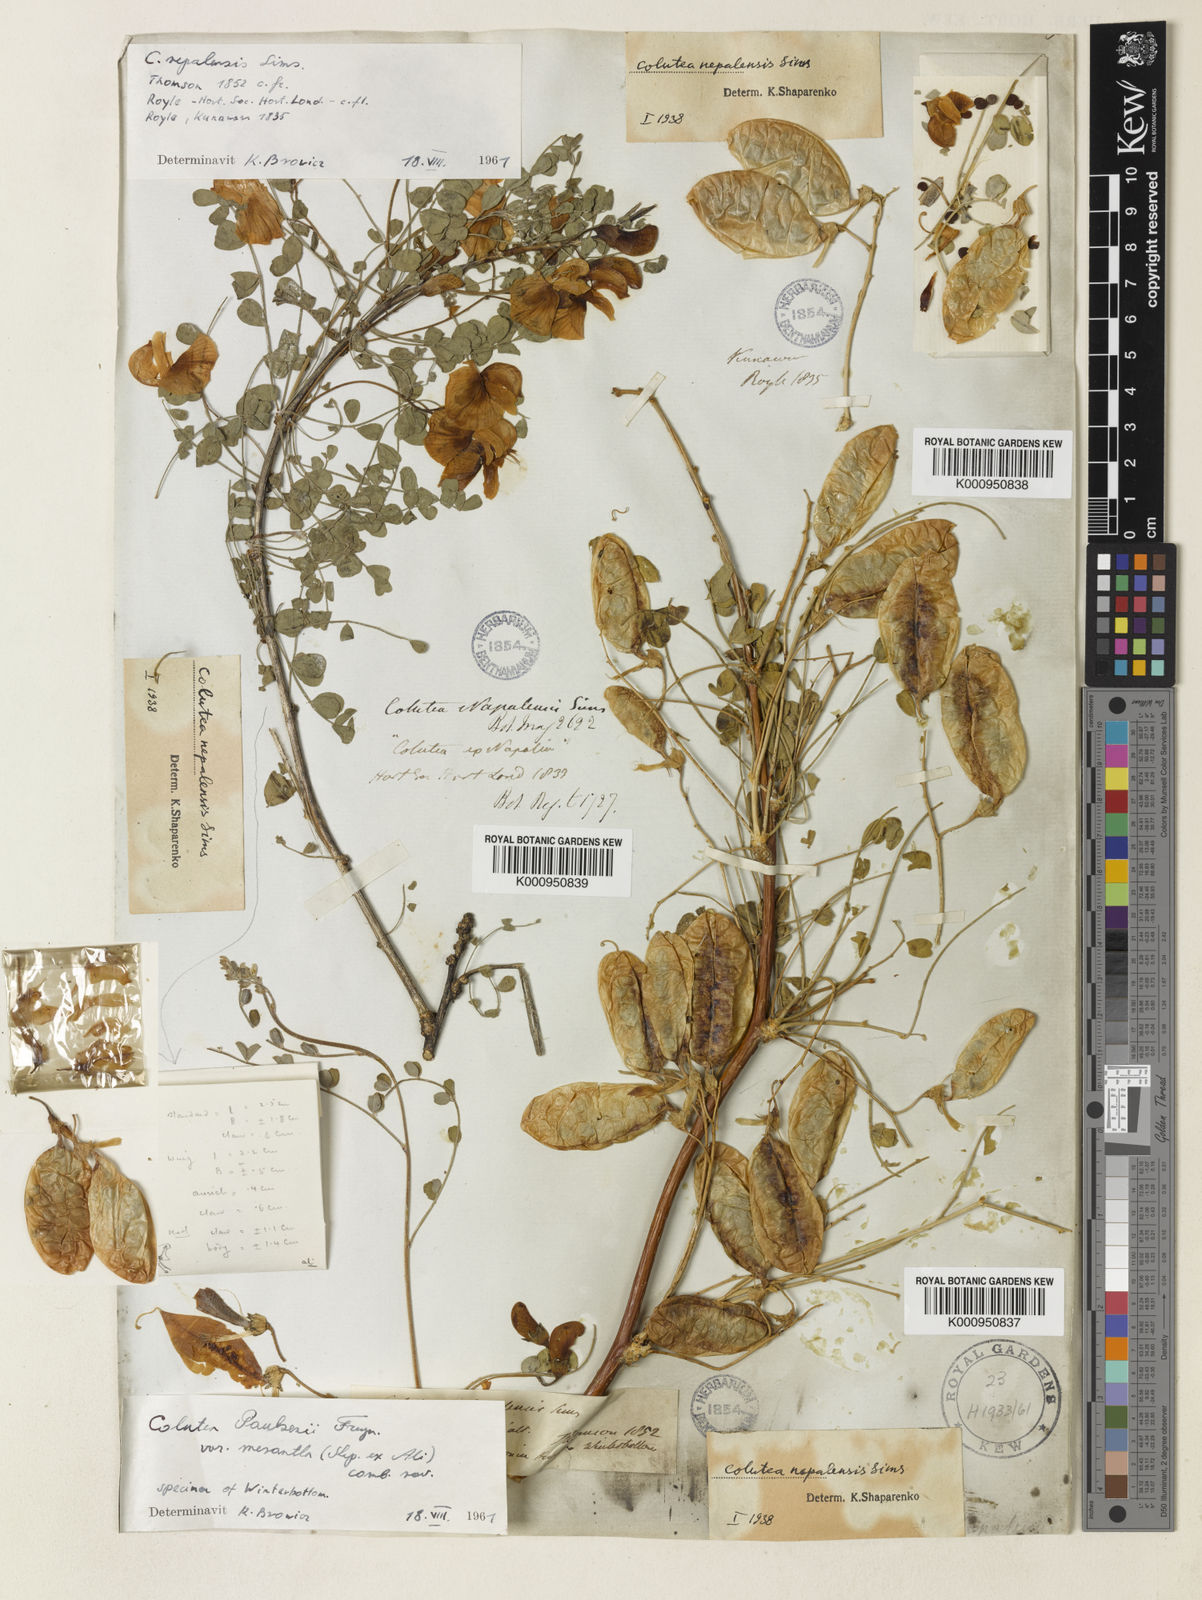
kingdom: Plantae
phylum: Tracheophyta
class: Magnoliopsida
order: Fabales
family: Fabaceae
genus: Colutea
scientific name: Colutea arborescens
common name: Bladder-senna
